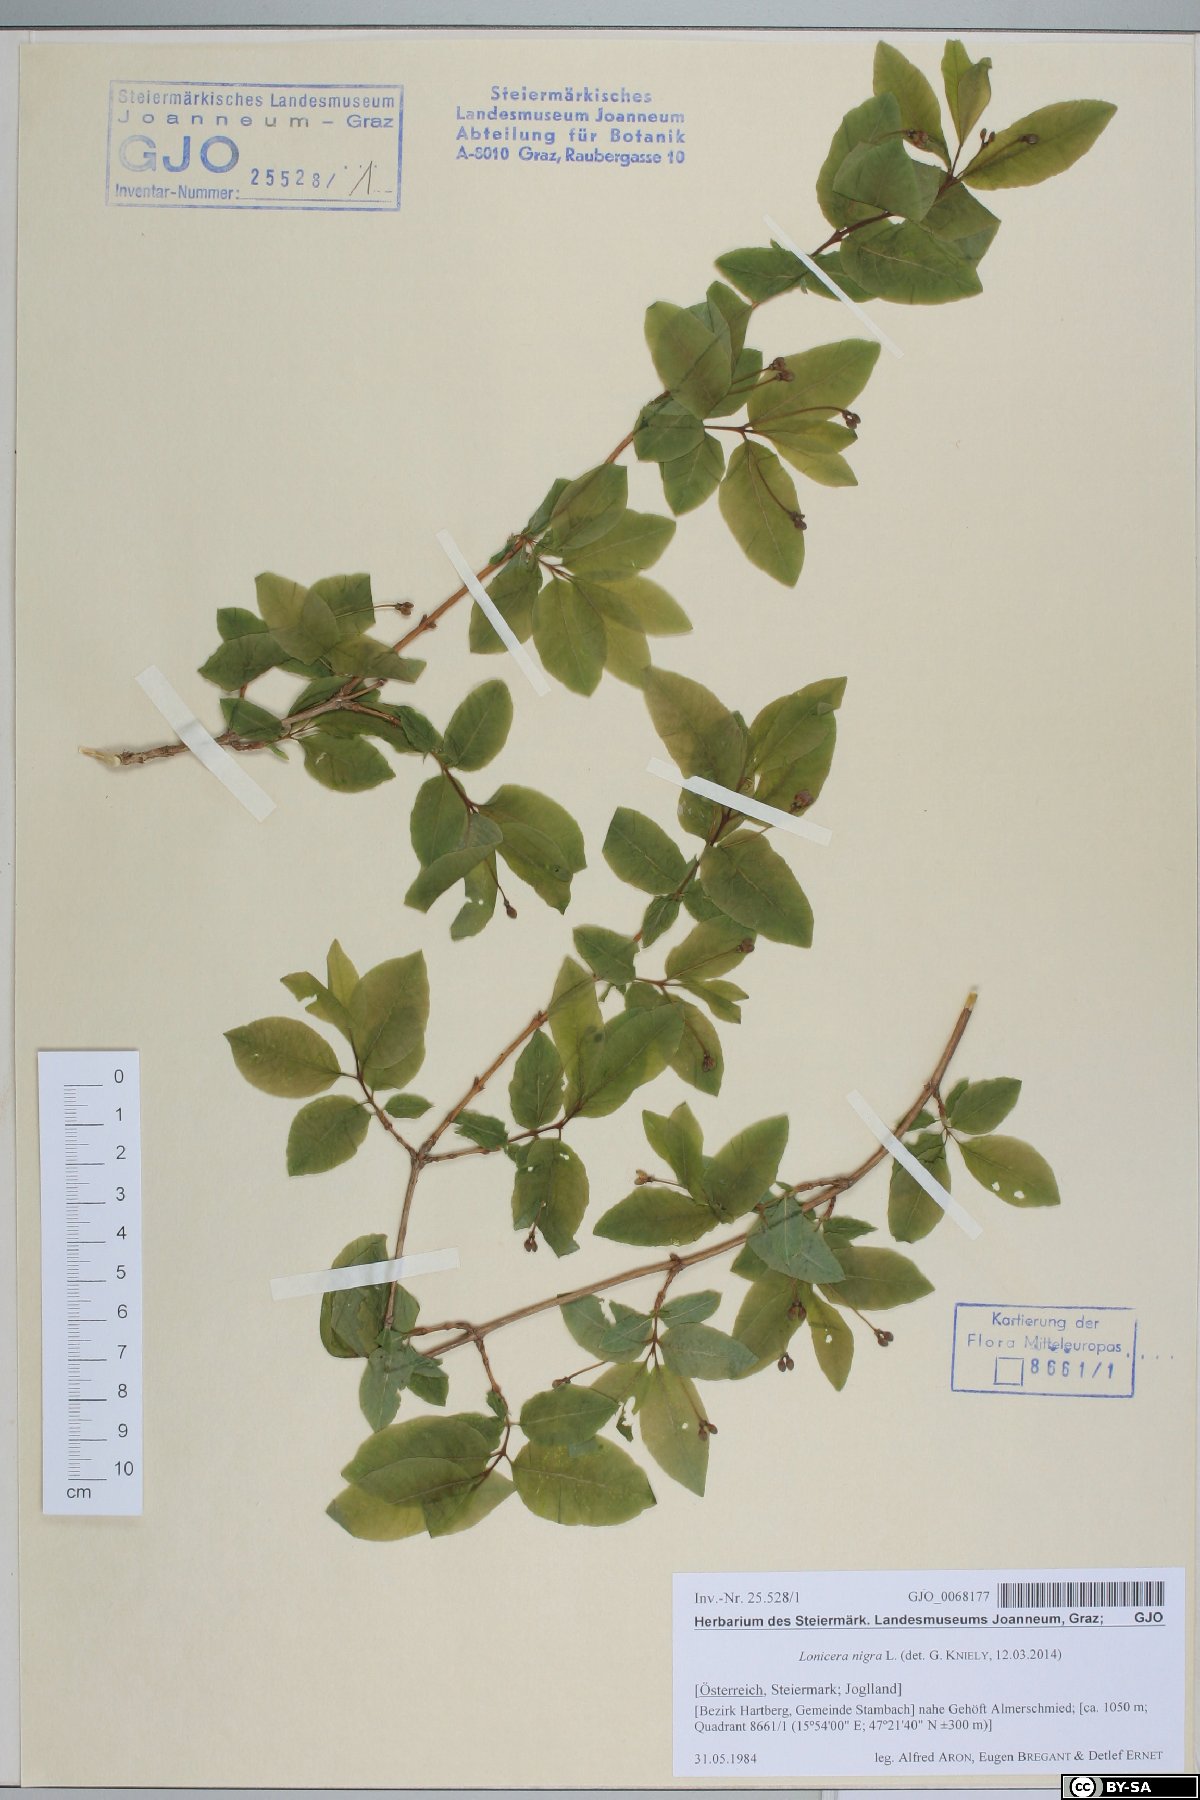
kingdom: Plantae
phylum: Tracheophyta
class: Magnoliopsida
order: Dipsacales
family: Caprifoliaceae
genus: Lonicera
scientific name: Lonicera nigra
